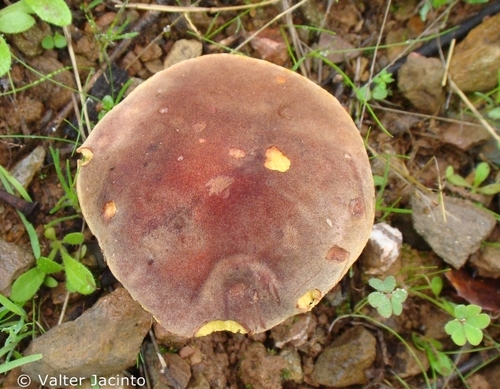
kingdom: Fungi
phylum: Basidiomycota
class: Agaricomycetes
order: Boletales
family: Boletaceae
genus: Hortiboletus
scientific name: Hortiboletus rubellus
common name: Ruby bolete
